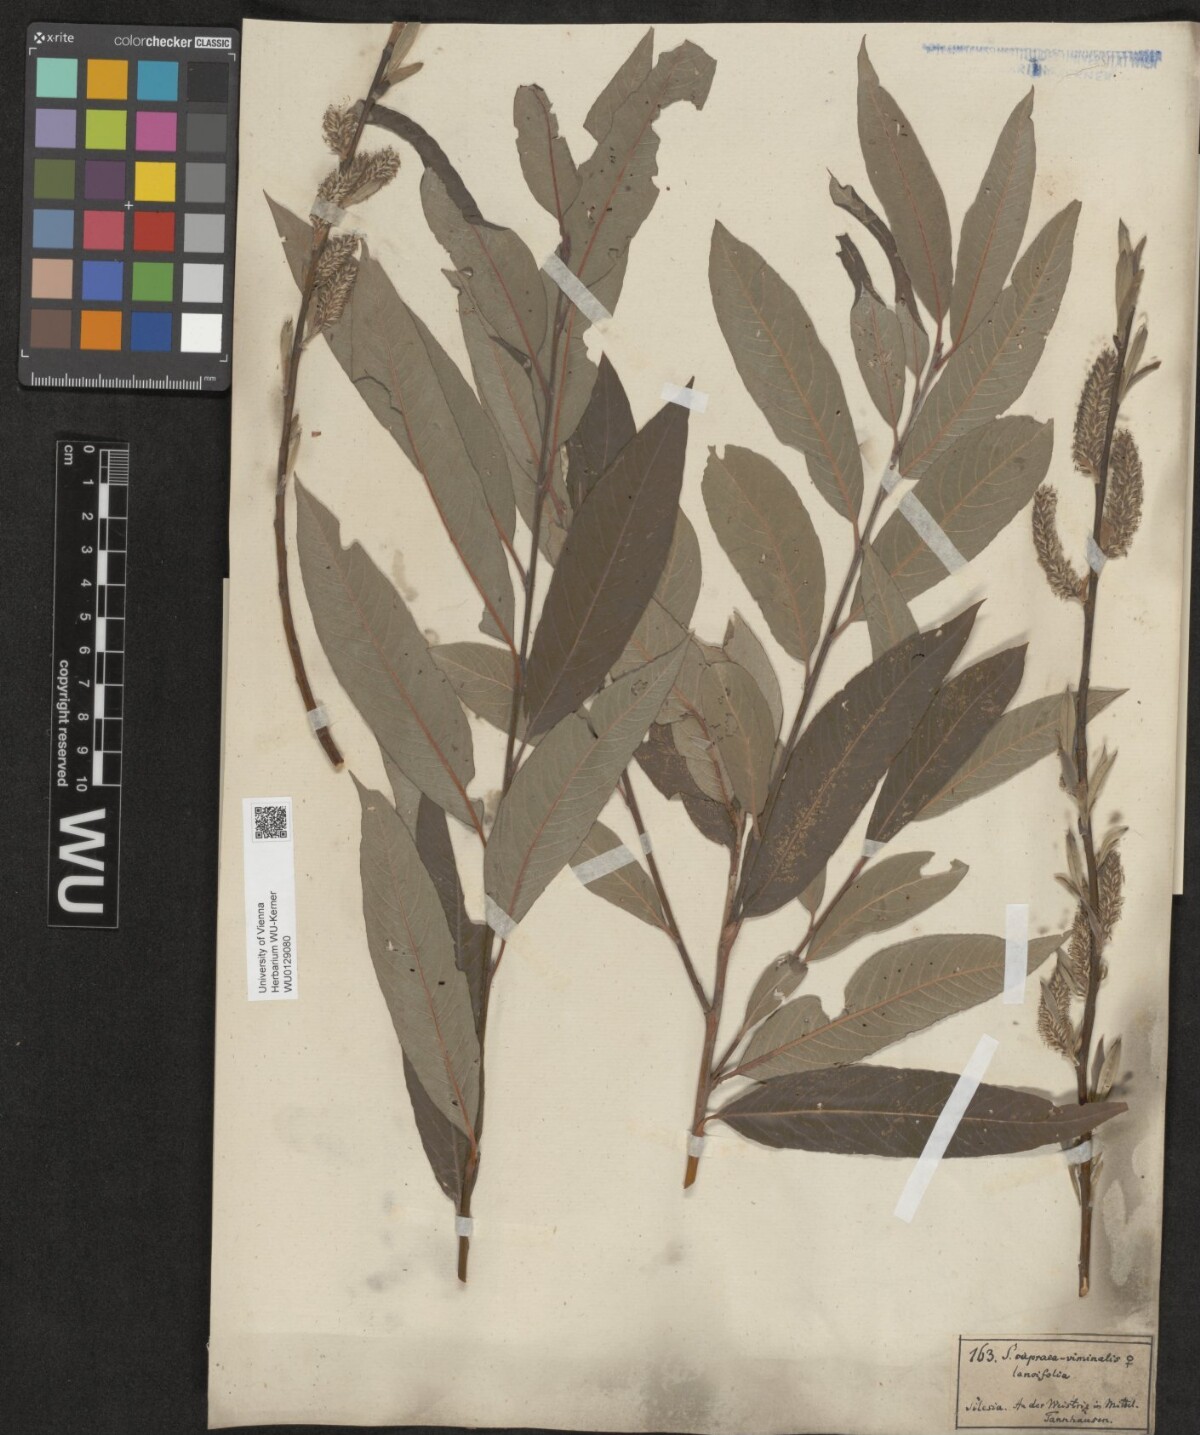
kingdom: Plantae
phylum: Tracheophyta
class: Magnoliopsida
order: Malpighiales
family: Salicaceae
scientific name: Salicaceae
